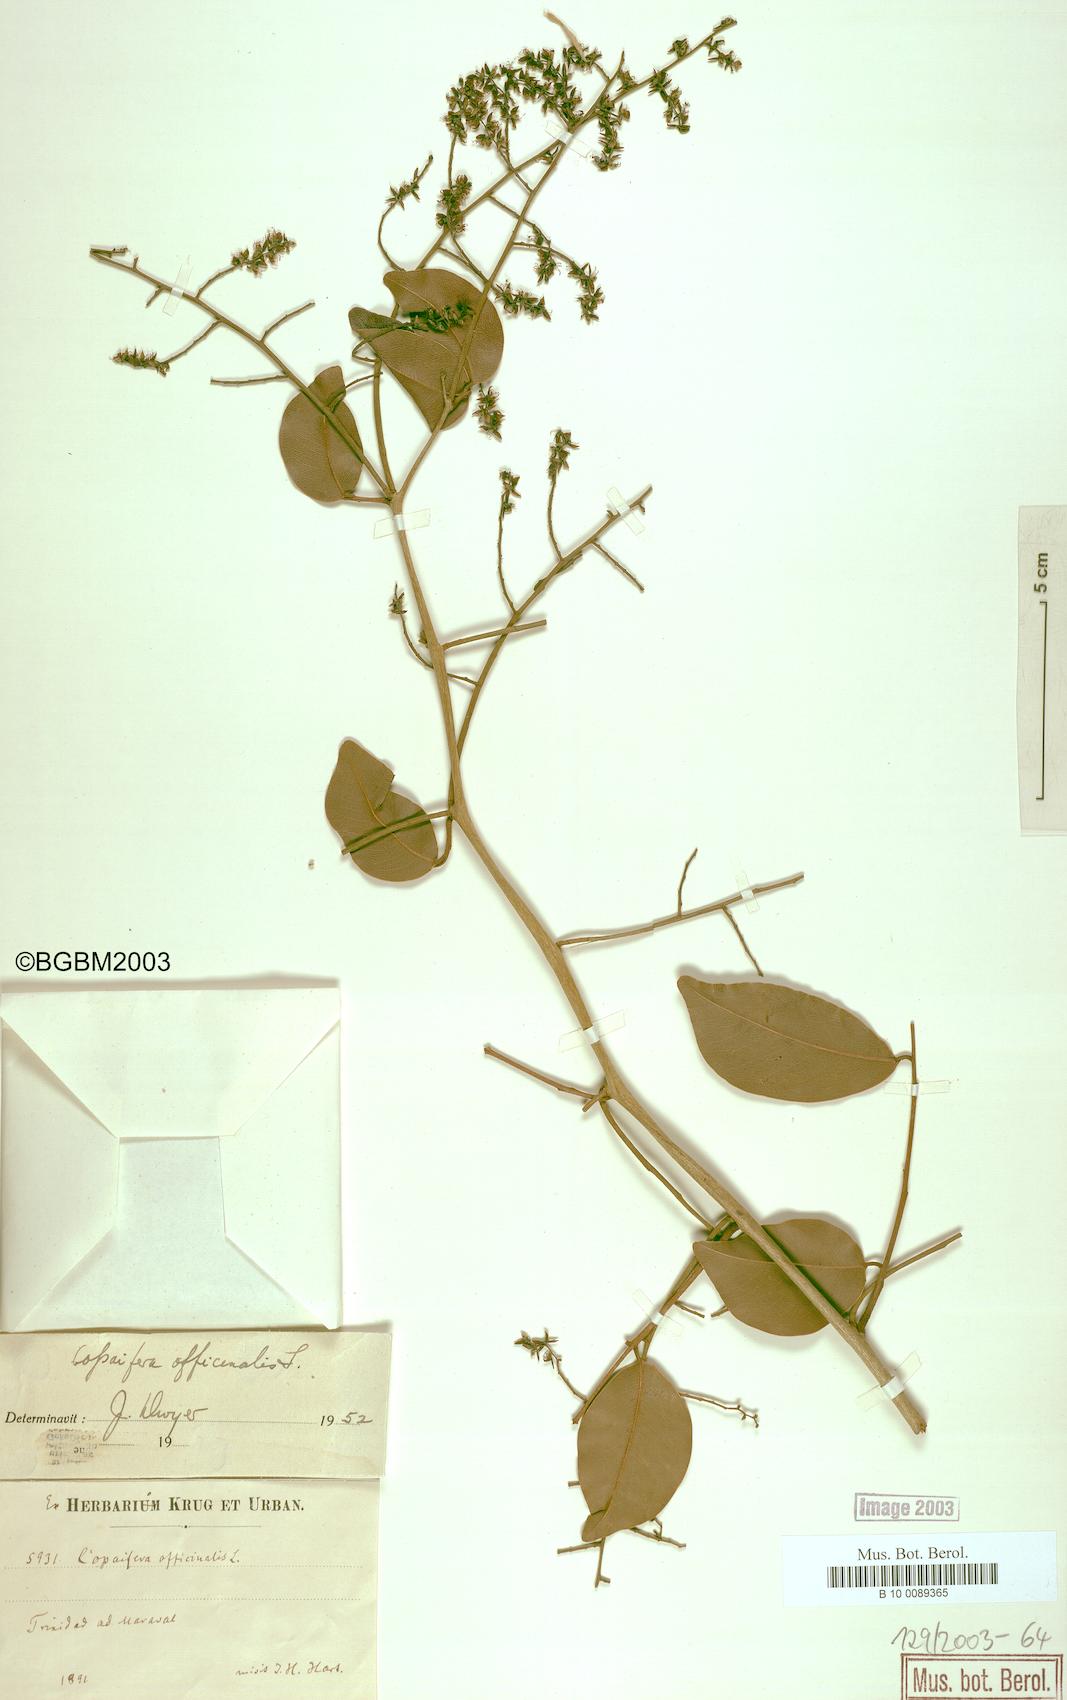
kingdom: Plantae
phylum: Tracheophyta
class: Magnoliopsida
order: Fabales
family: Fabaceae
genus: Copaifera
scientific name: Copaifera officinalis
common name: Copaiba
